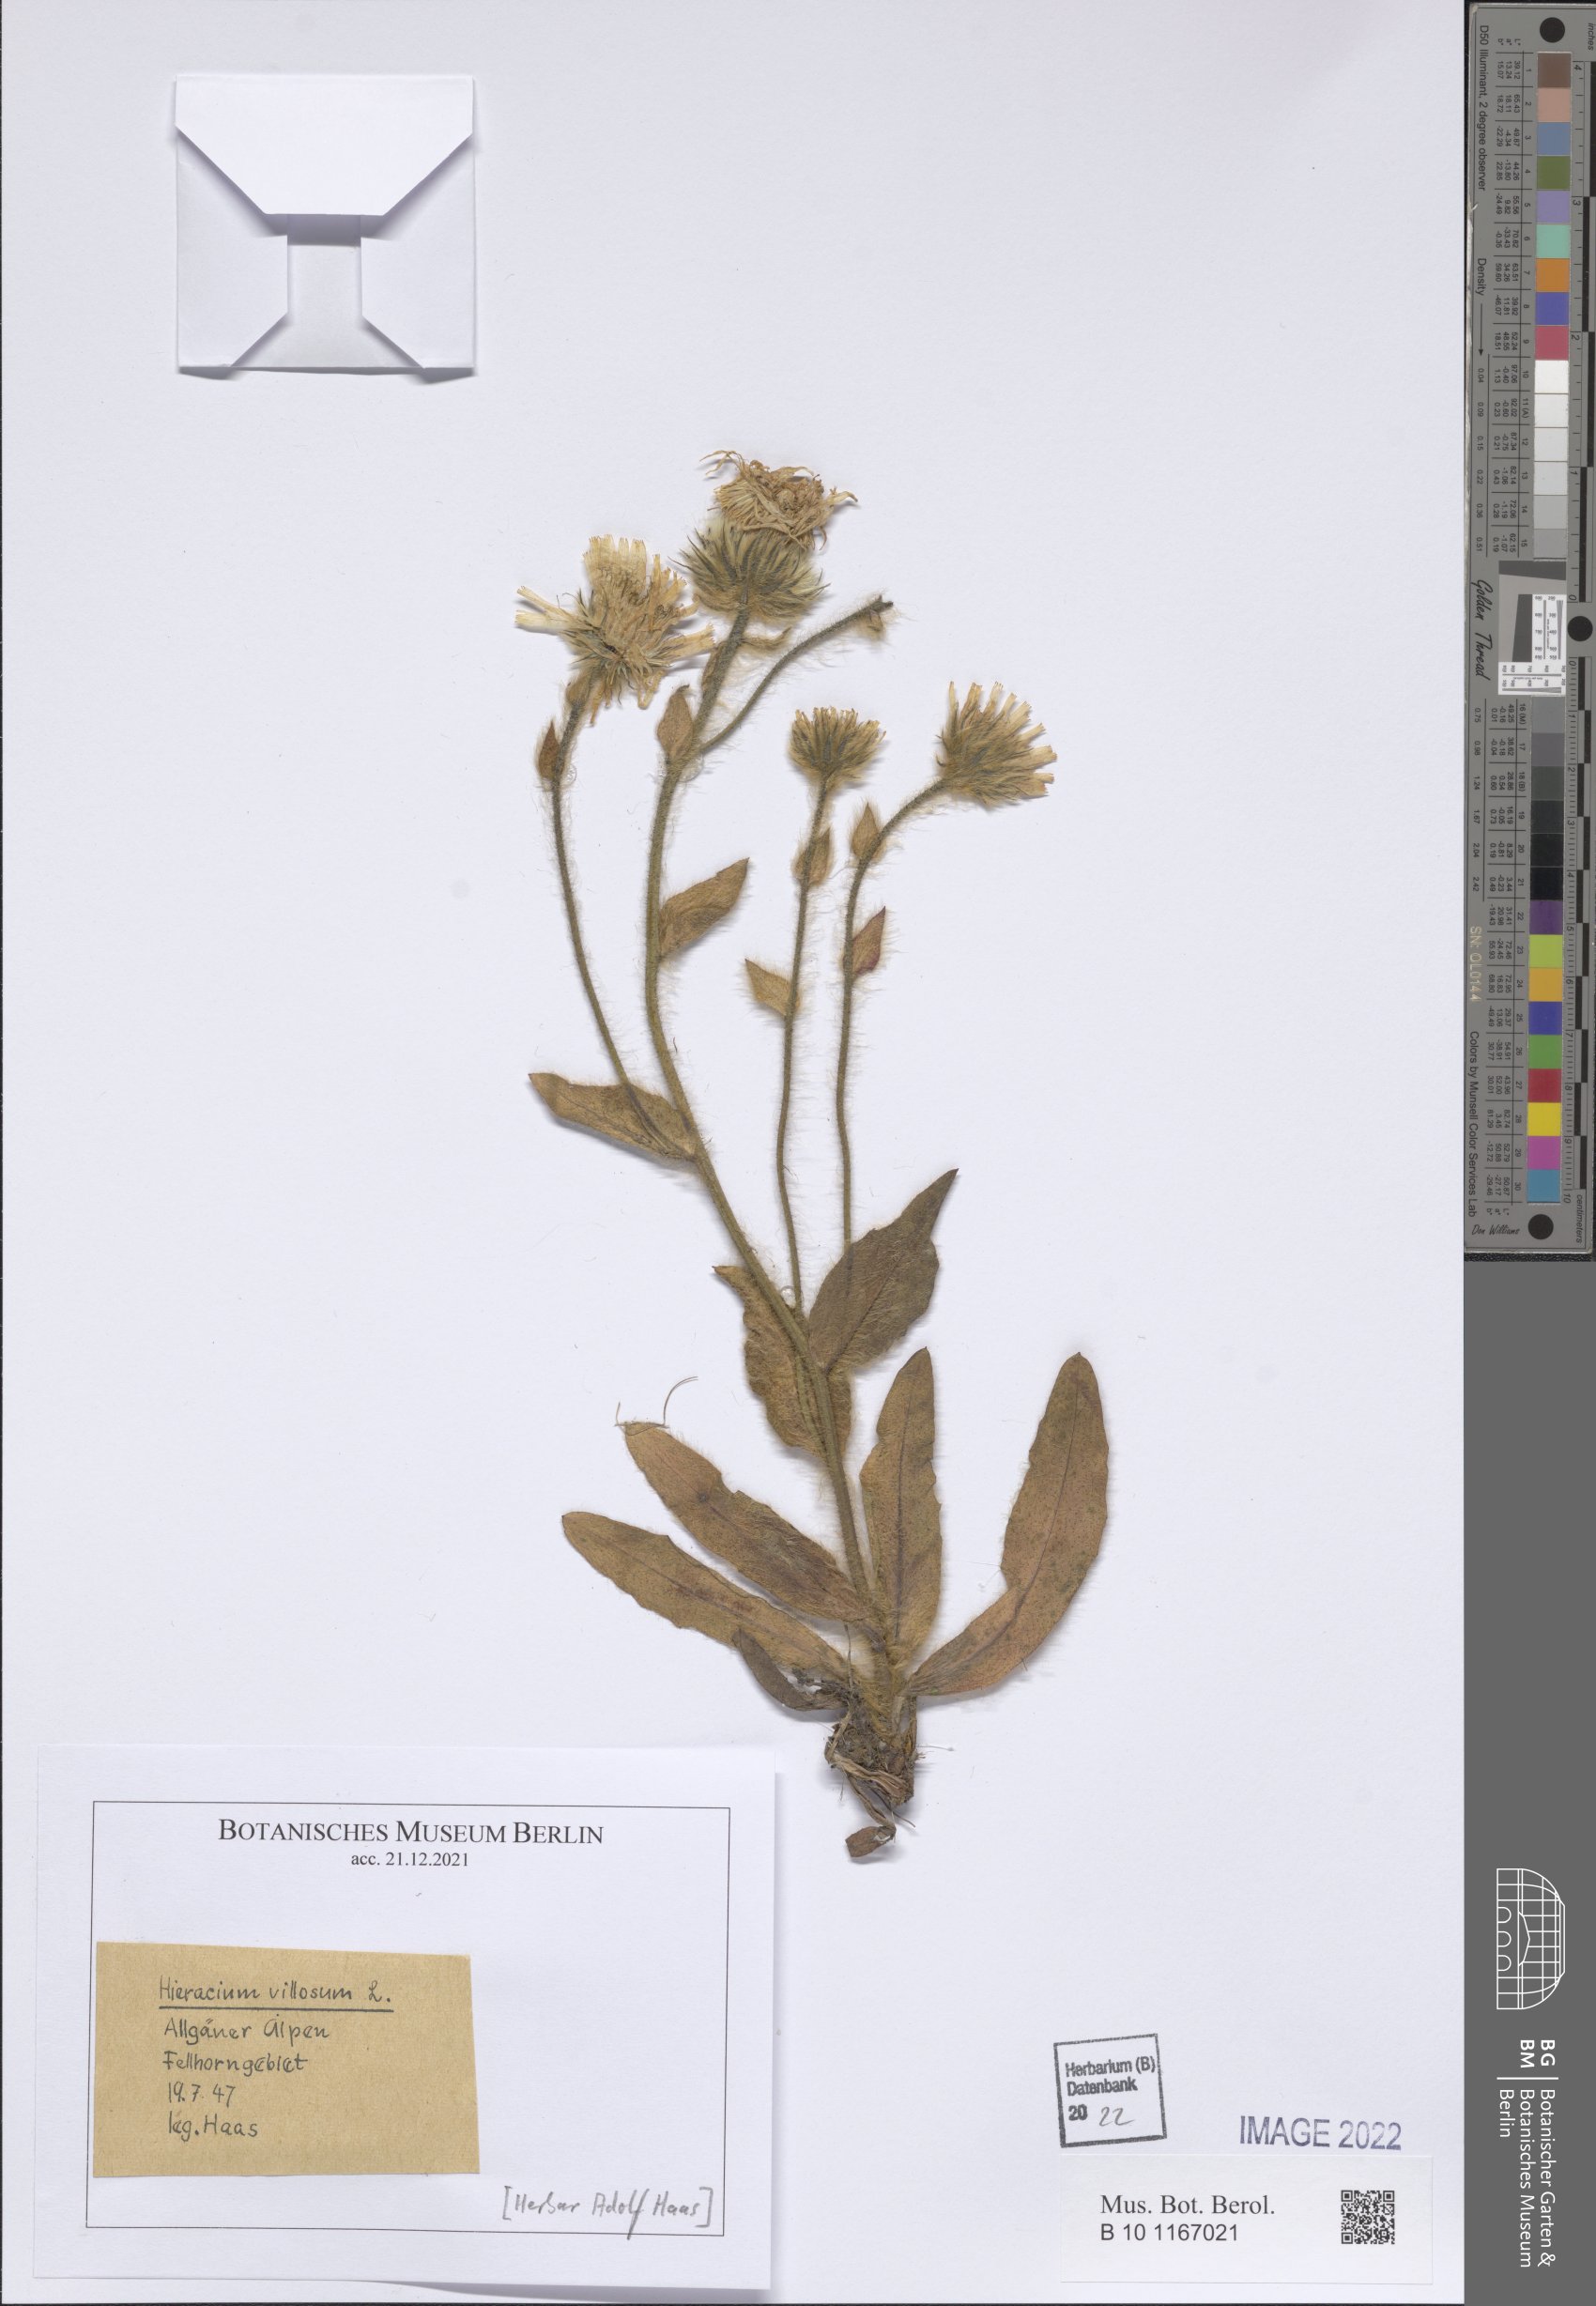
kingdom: Plantae
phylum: Tracheophyta
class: Magnoliopsida
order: Asterales
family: Asteraceae
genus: Hieracium
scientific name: Hieracium villosum
